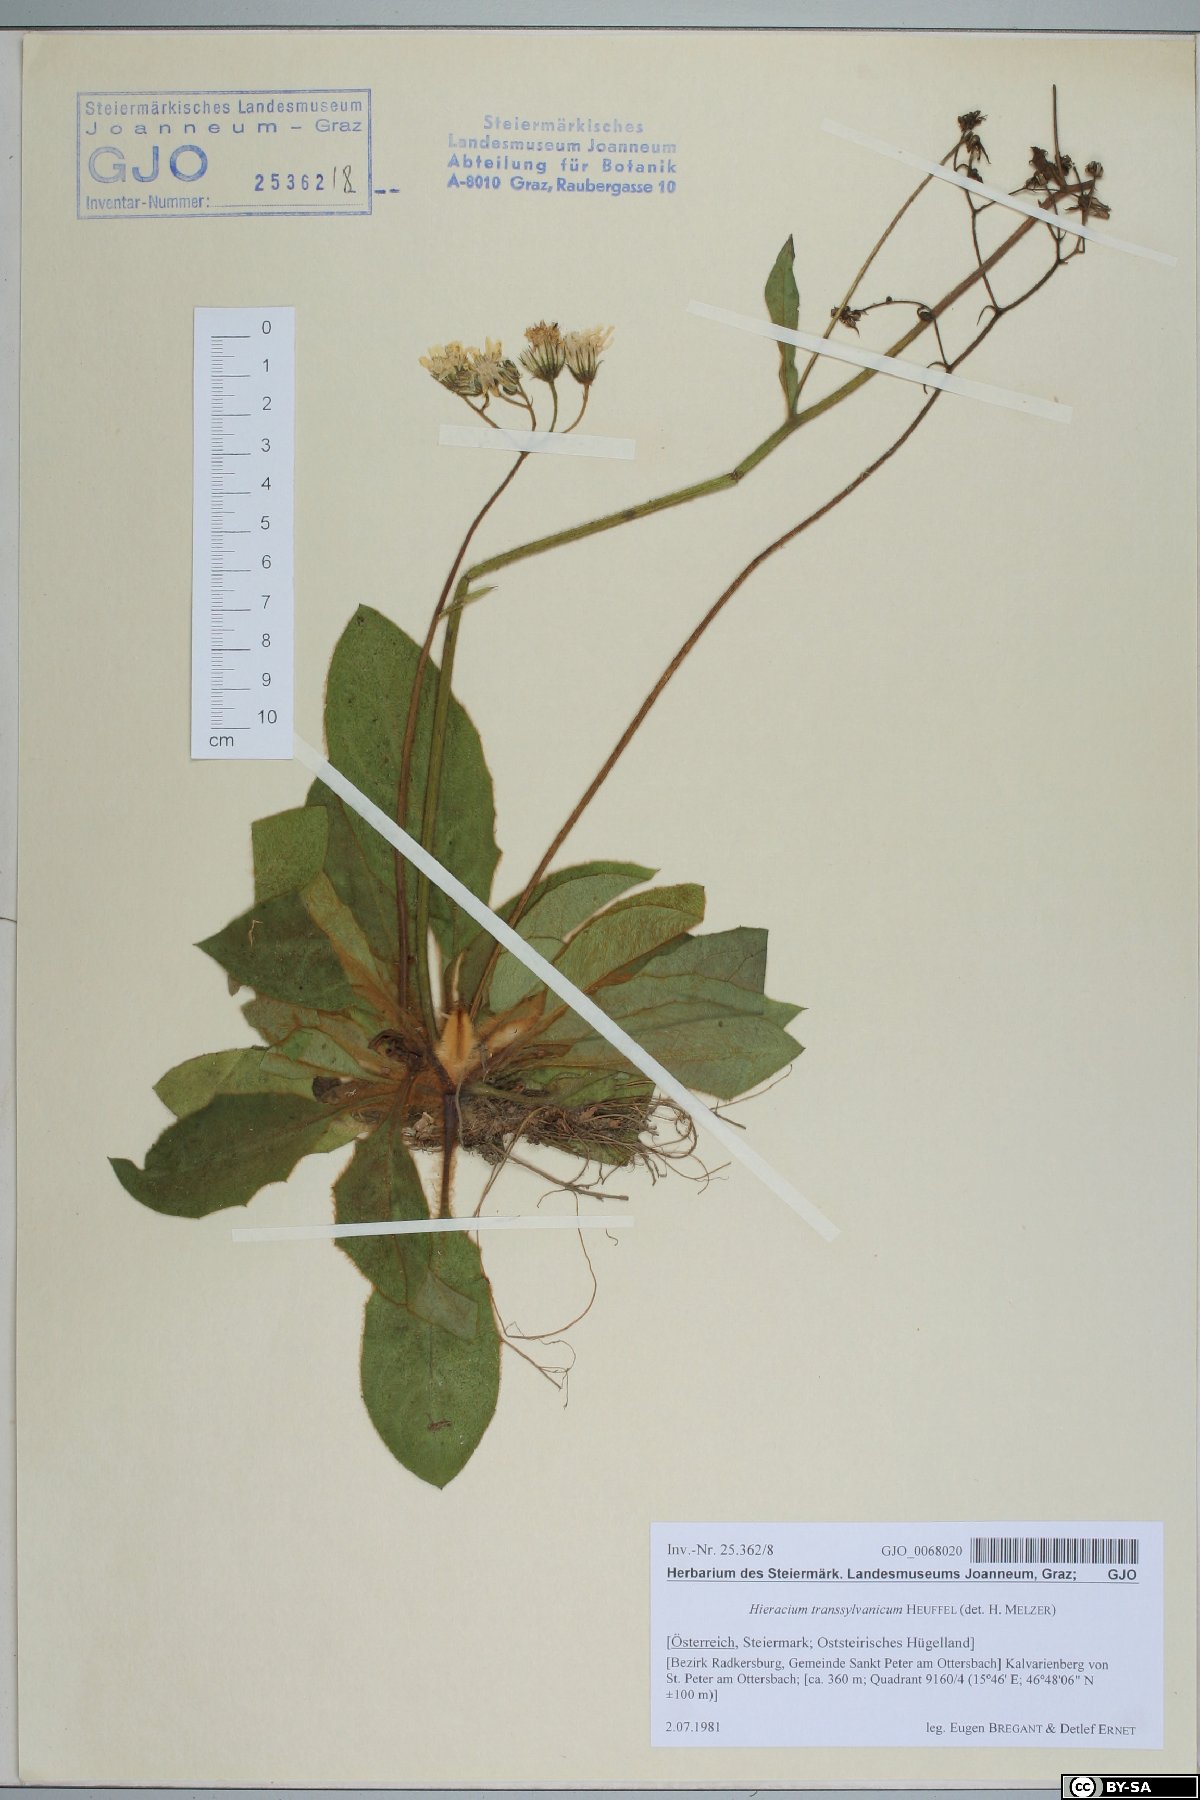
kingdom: Plantae
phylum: Tracheophyta
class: Magnoliopsida
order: Asterales
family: Asteraceae
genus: Hieracium
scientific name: Hieracium transylvanicum
